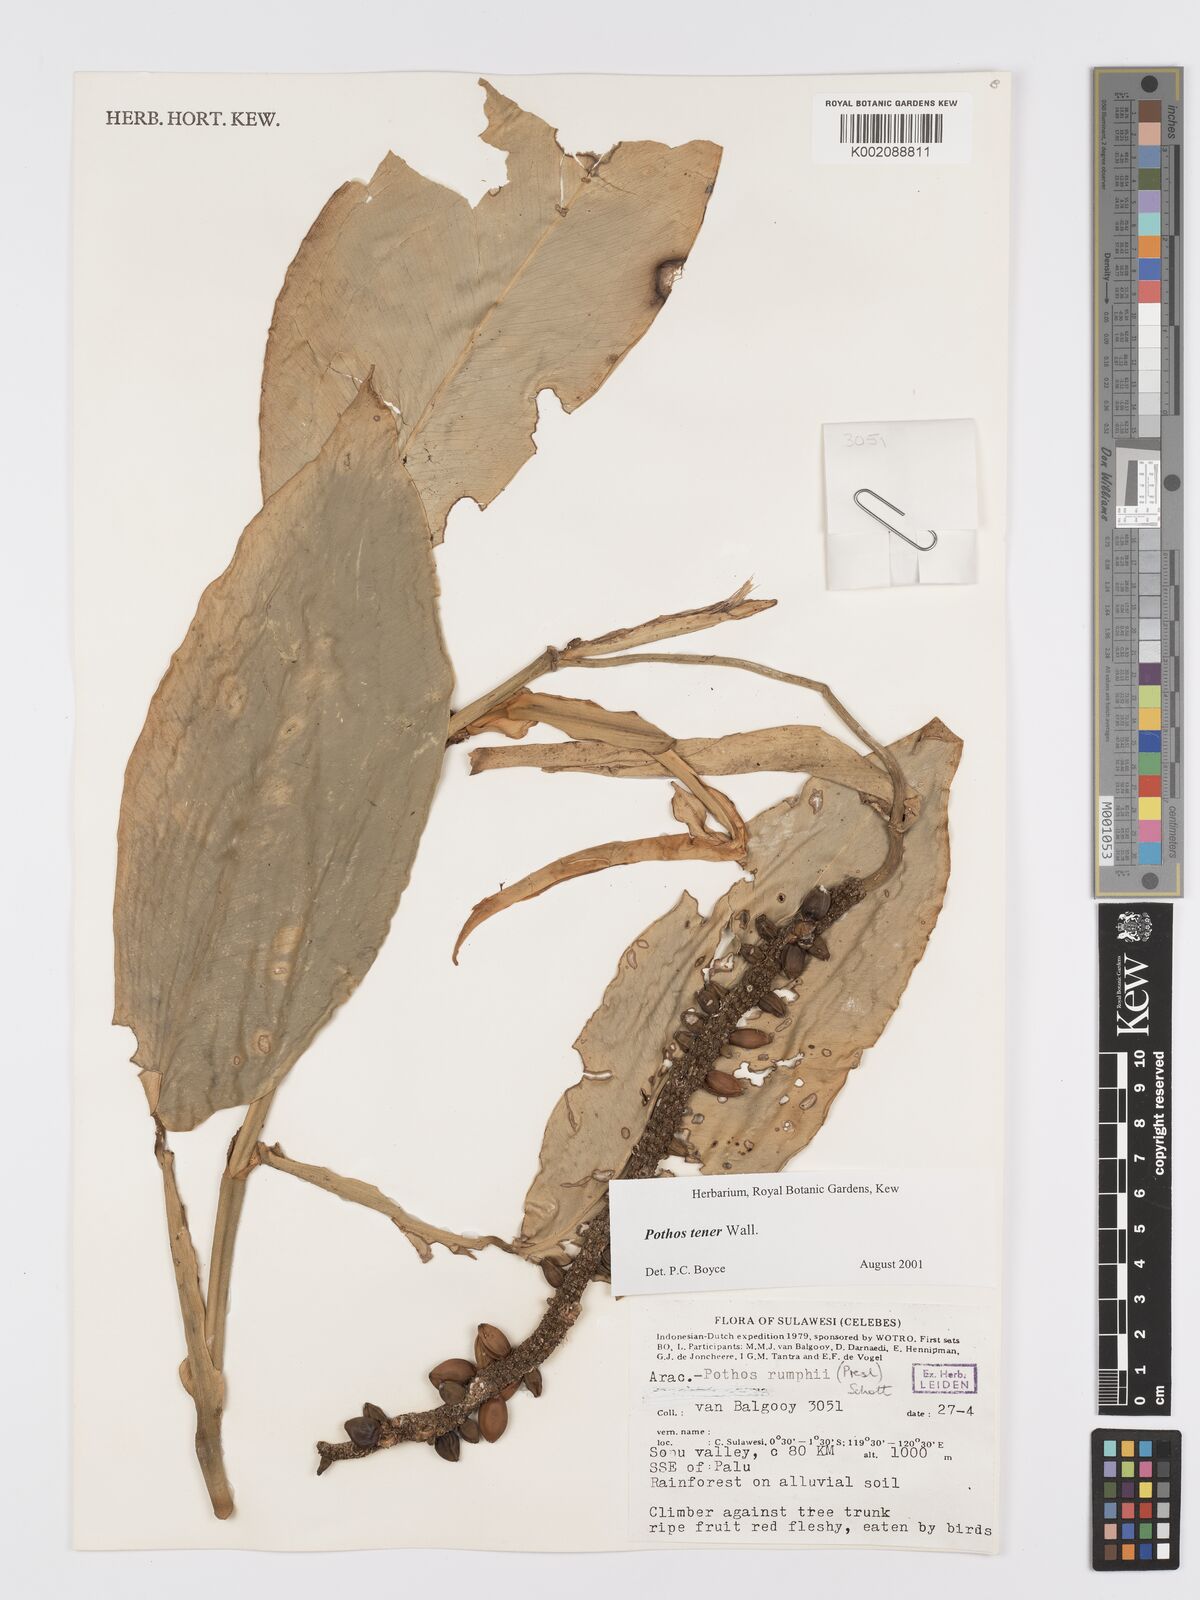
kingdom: Plantae
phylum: Tracheophyta
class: Liliopsida
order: Alismatales
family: Araceae
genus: Pothos
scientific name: Pothos tener
